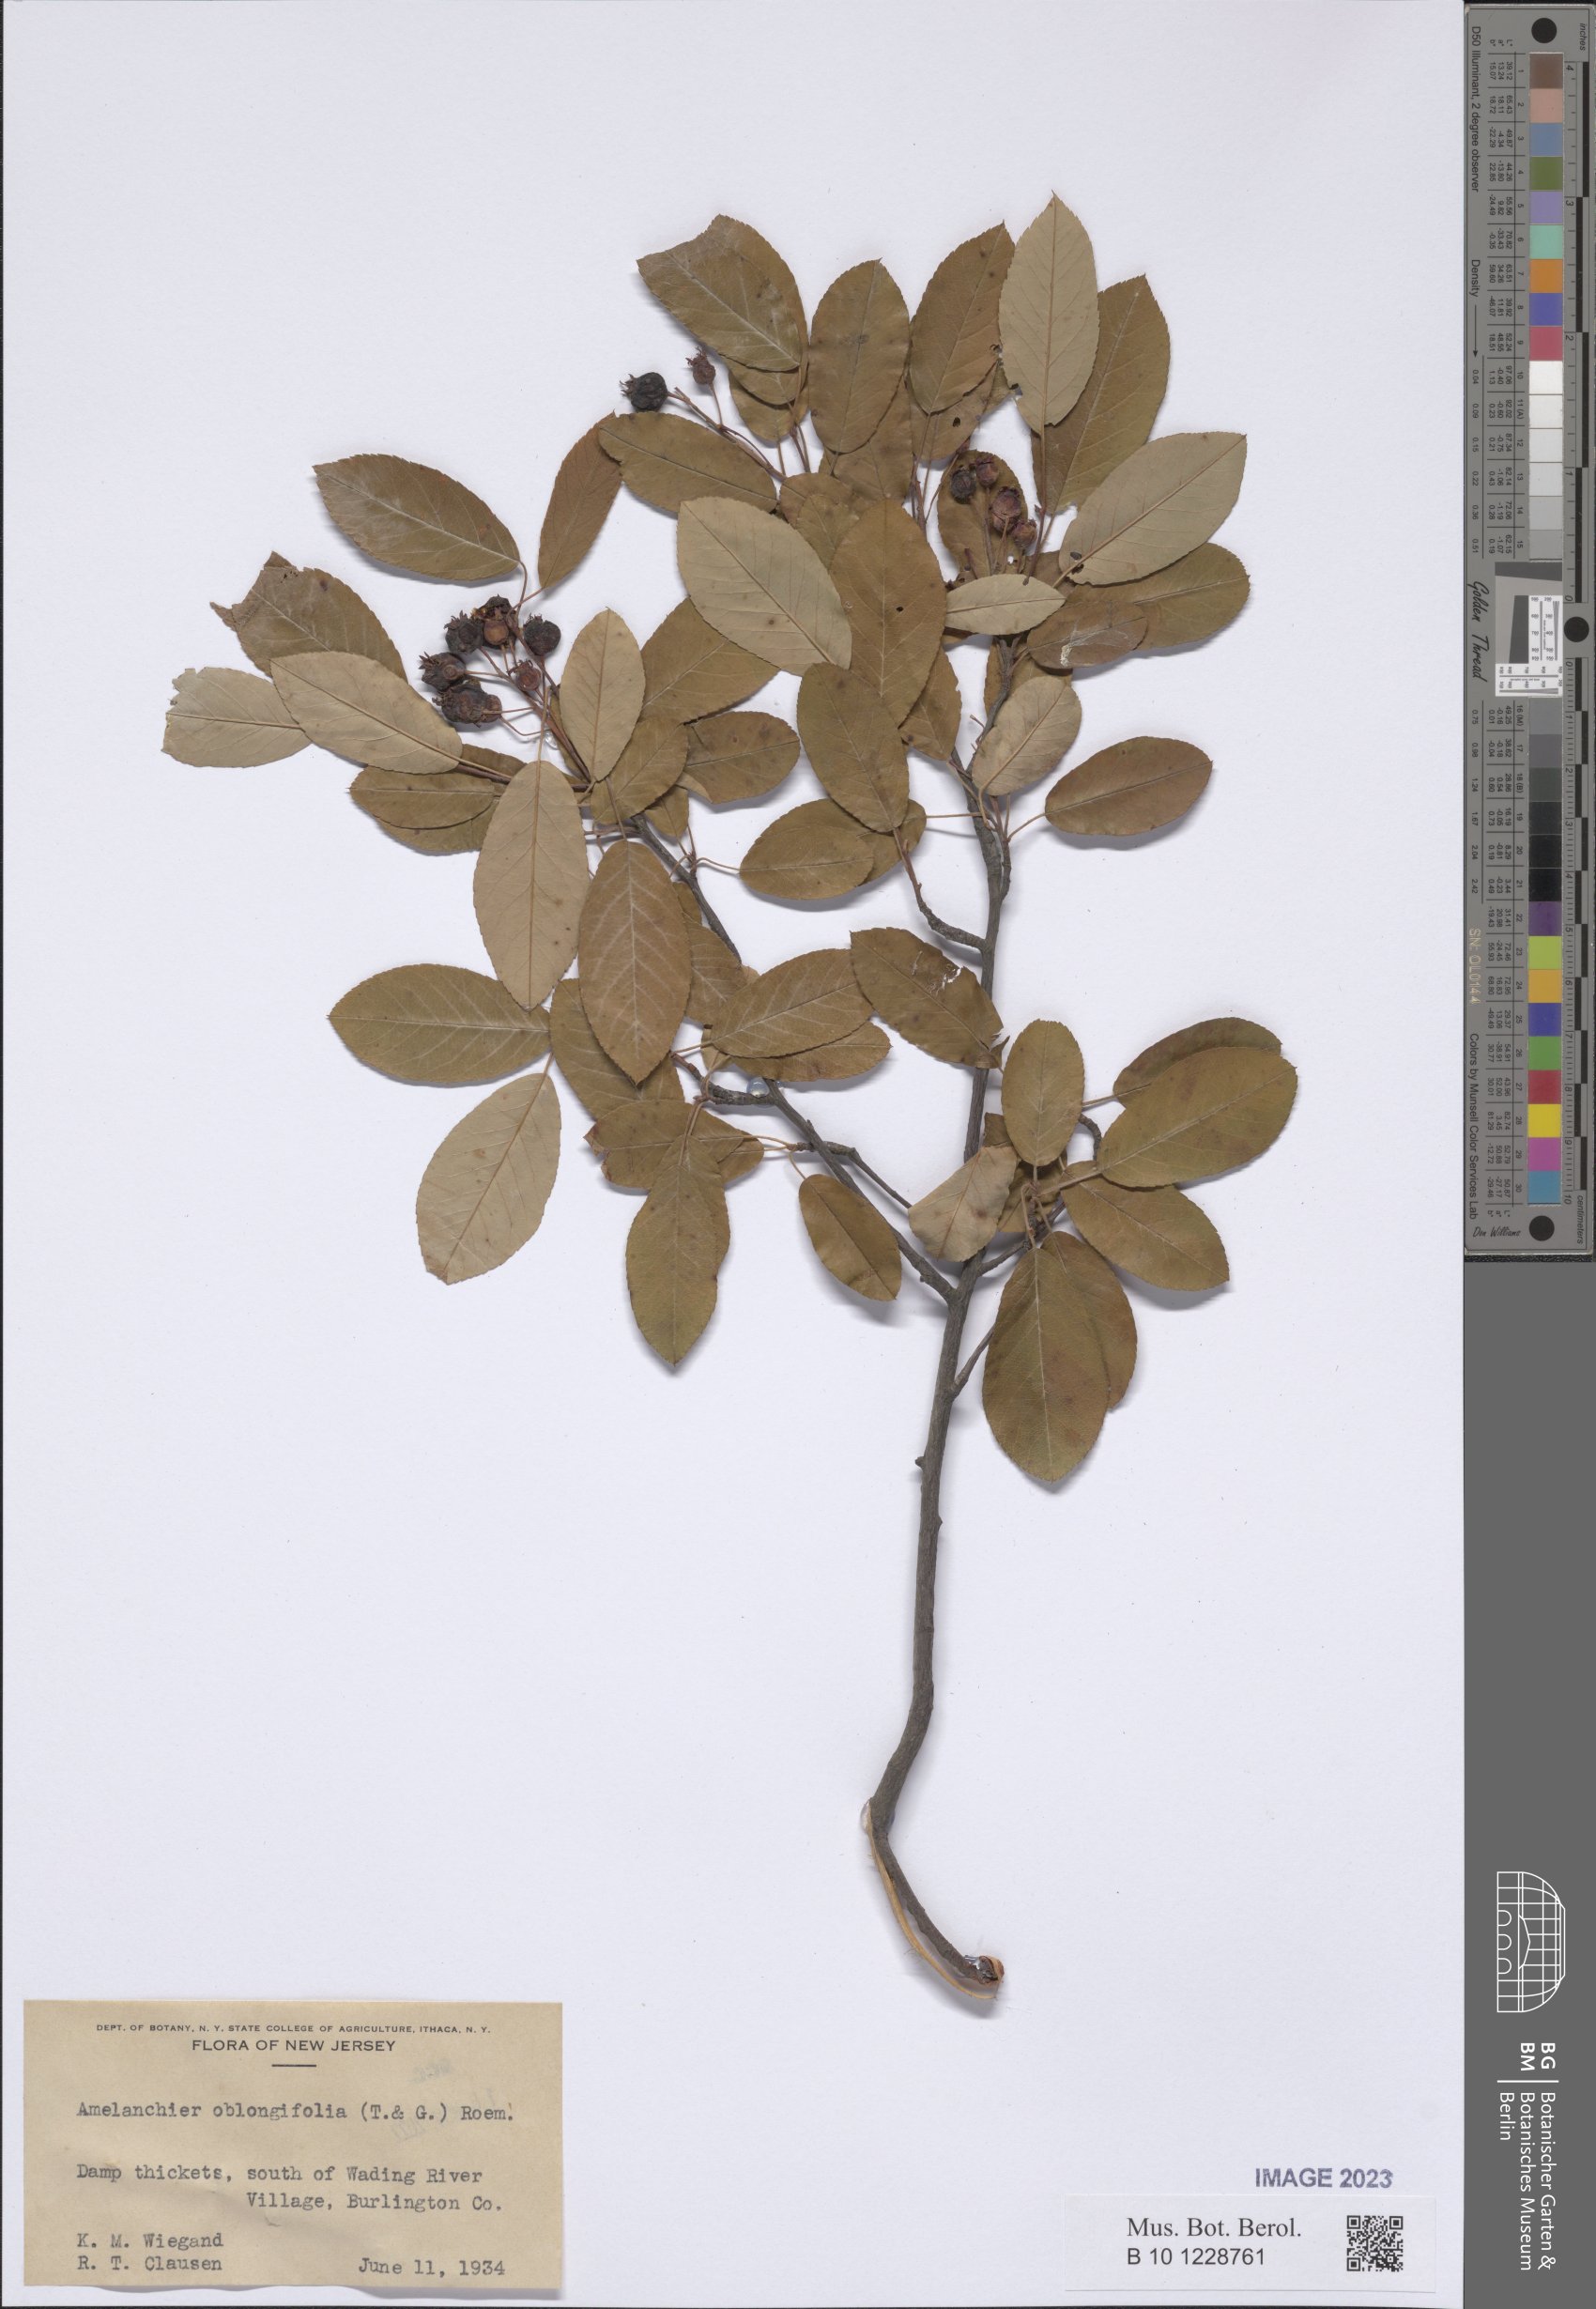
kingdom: Plantae
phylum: Tracheophyta
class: Magnoliopsida
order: Rosales
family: Rosaceae
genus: Amelanchier
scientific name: Amelanchier canadensis
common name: Thicket serviceberry
